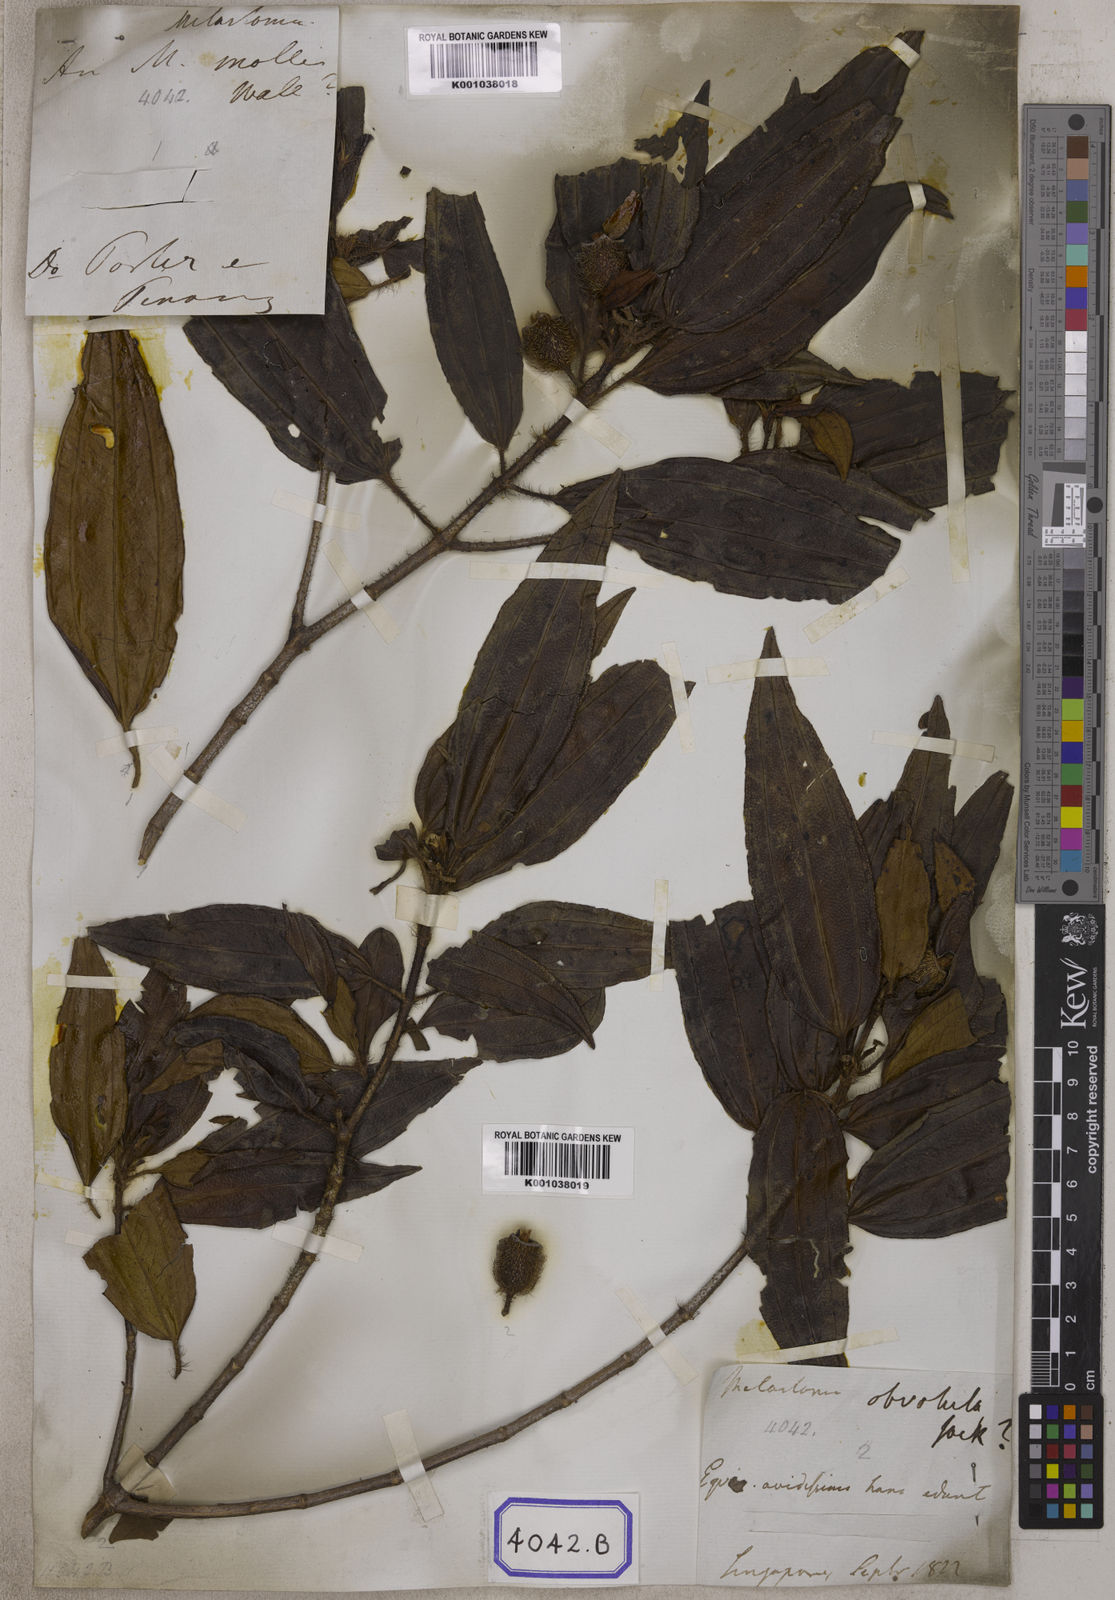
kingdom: Plantae
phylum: Tracheophyta
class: Magnoliopsida
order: Myrtales
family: Melastomataceae
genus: Melastoma
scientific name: Melastoma sanguineum
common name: Red melastome
